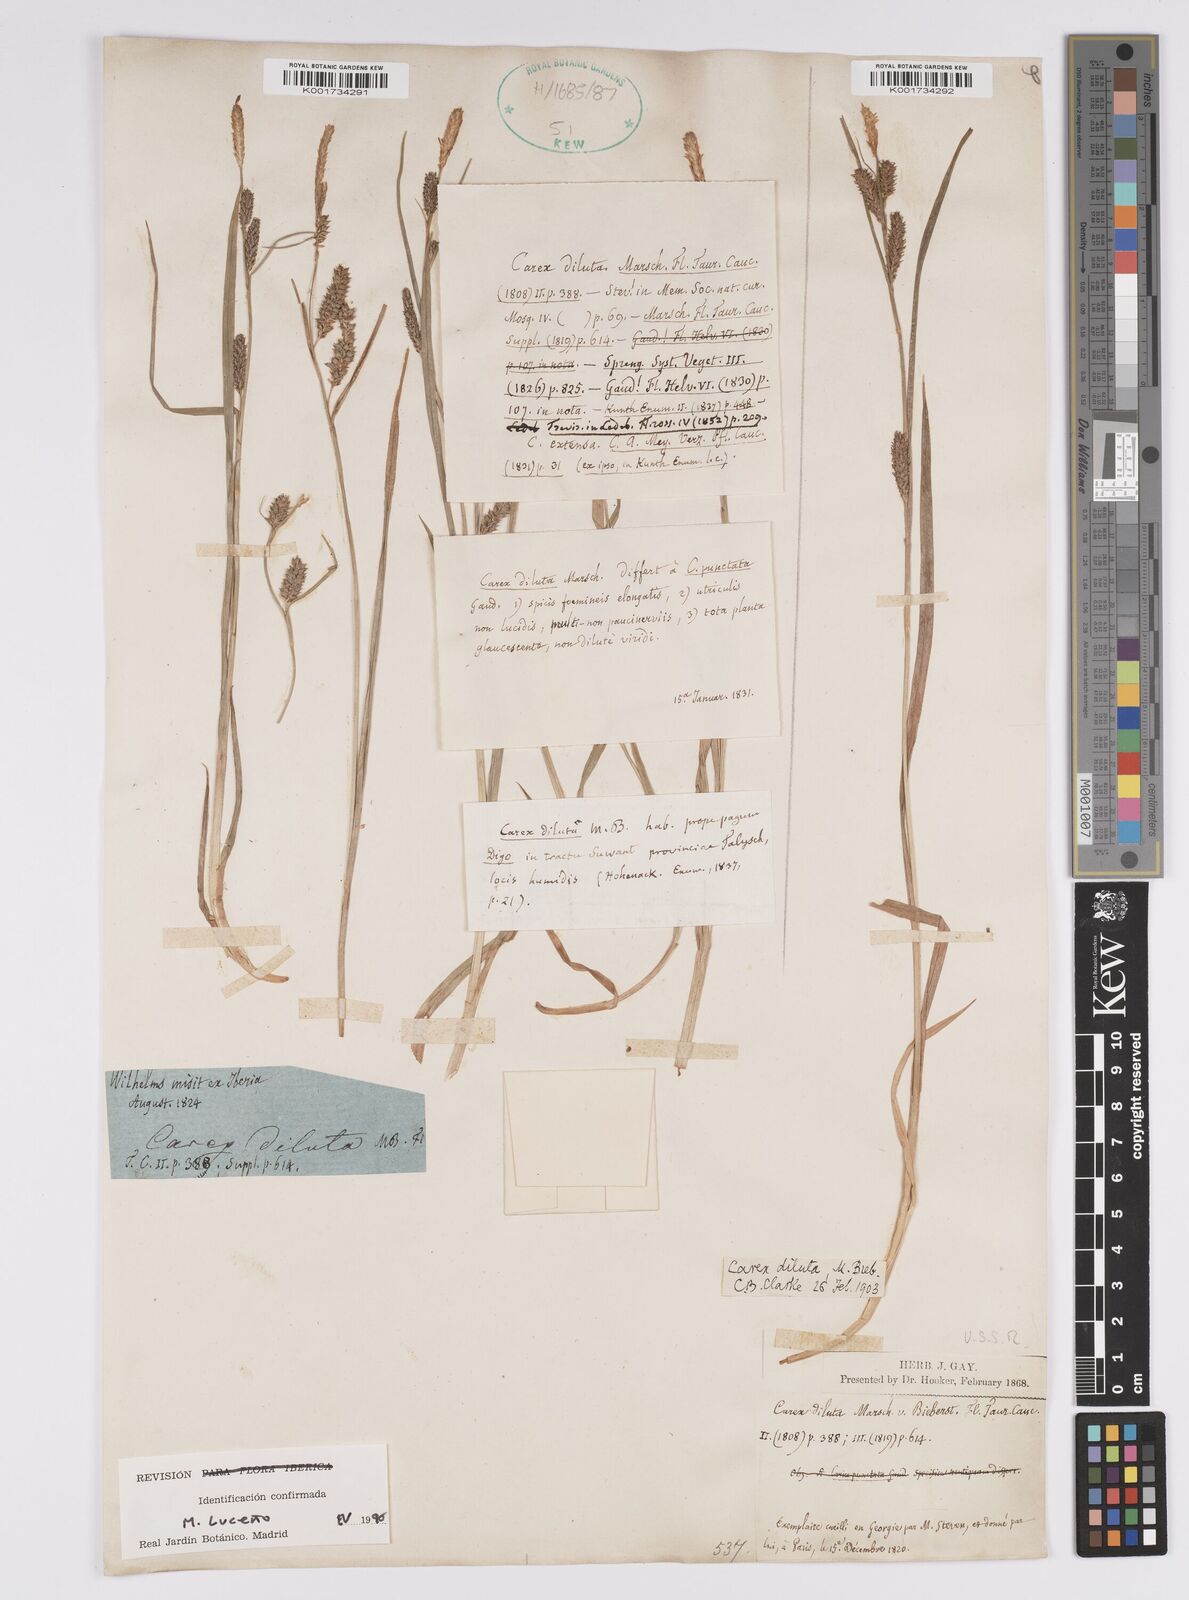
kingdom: Plantae
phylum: Tracheophyta
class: Liliopsida
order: Poales
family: Cyperaceae
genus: Carex
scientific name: Carex diluta
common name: Sedge
